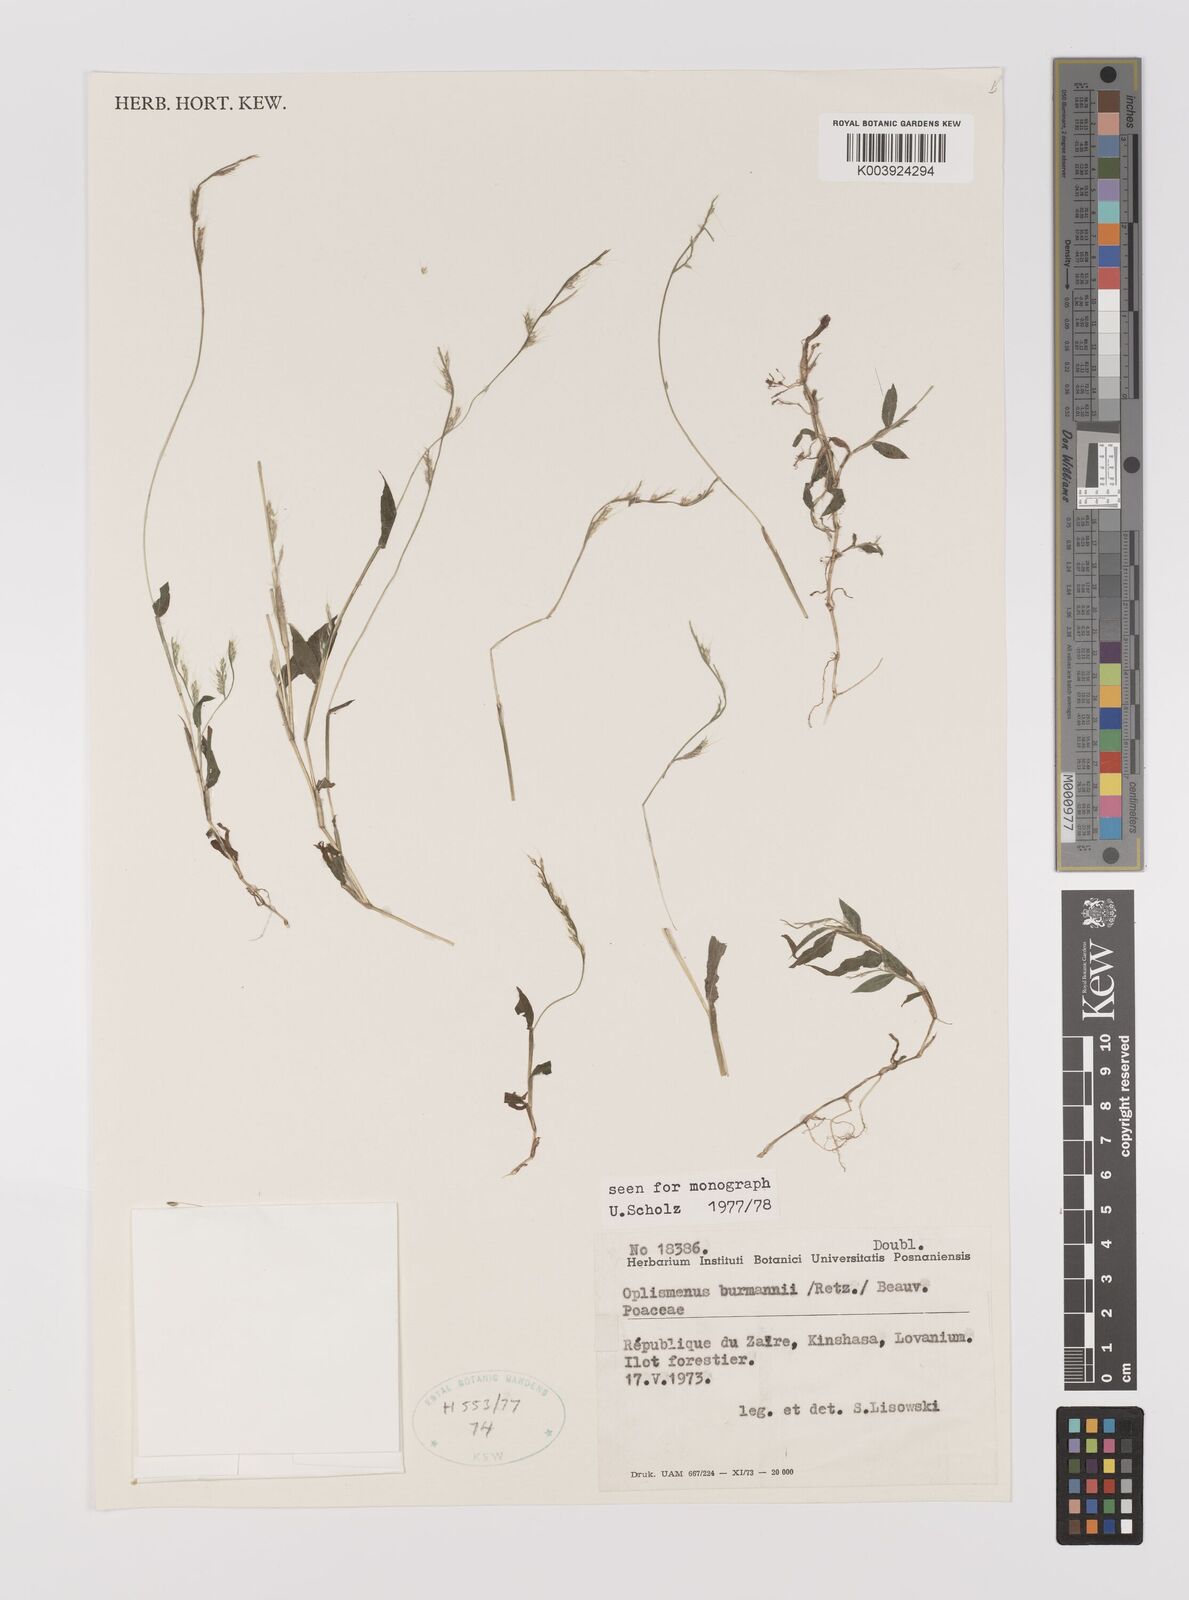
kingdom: Plantae
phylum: Tracheophyta
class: Liliopsida
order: Poales
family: Poaceae
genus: Oplismenus
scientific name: Oplismenus burmanni
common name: Burmann's basketgrass
